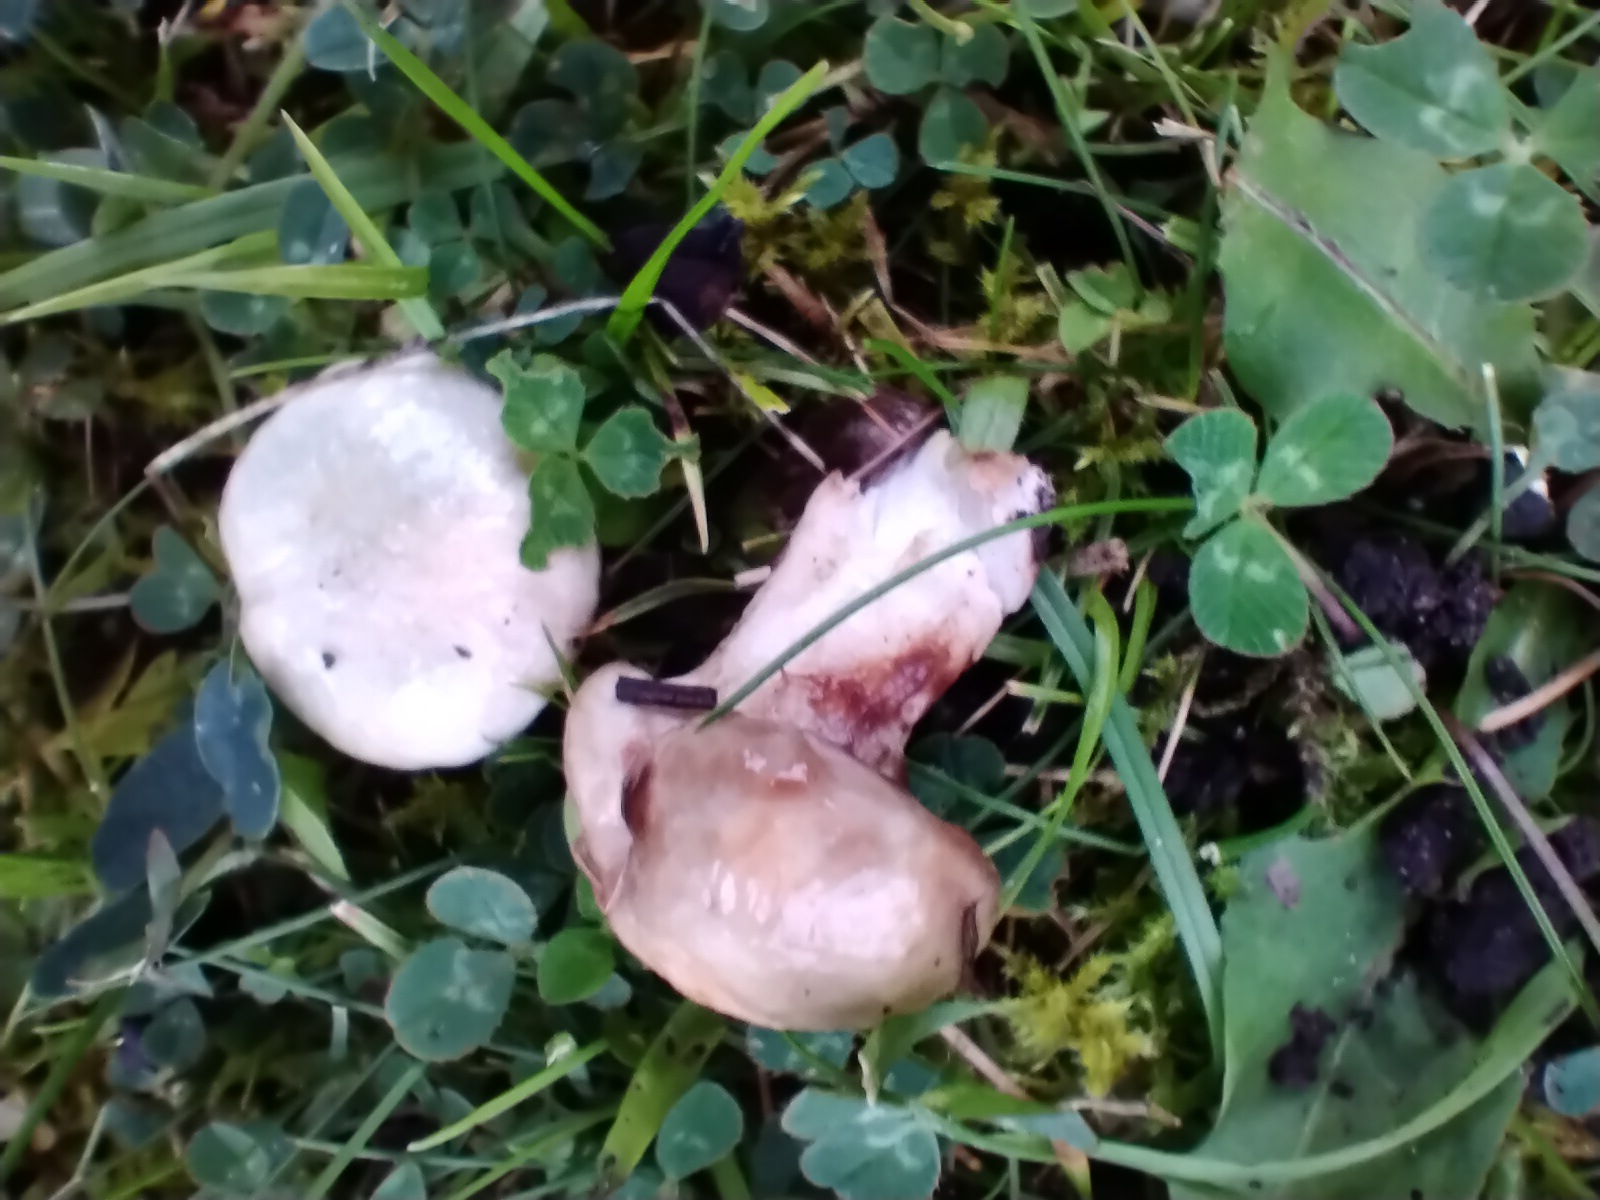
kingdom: Fungi
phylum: Basidiomycota
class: Agaricomycetes
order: Boletales
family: Suillaceae
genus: Suillus
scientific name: Suillus viscidus
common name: olivengrå slimrørhat
